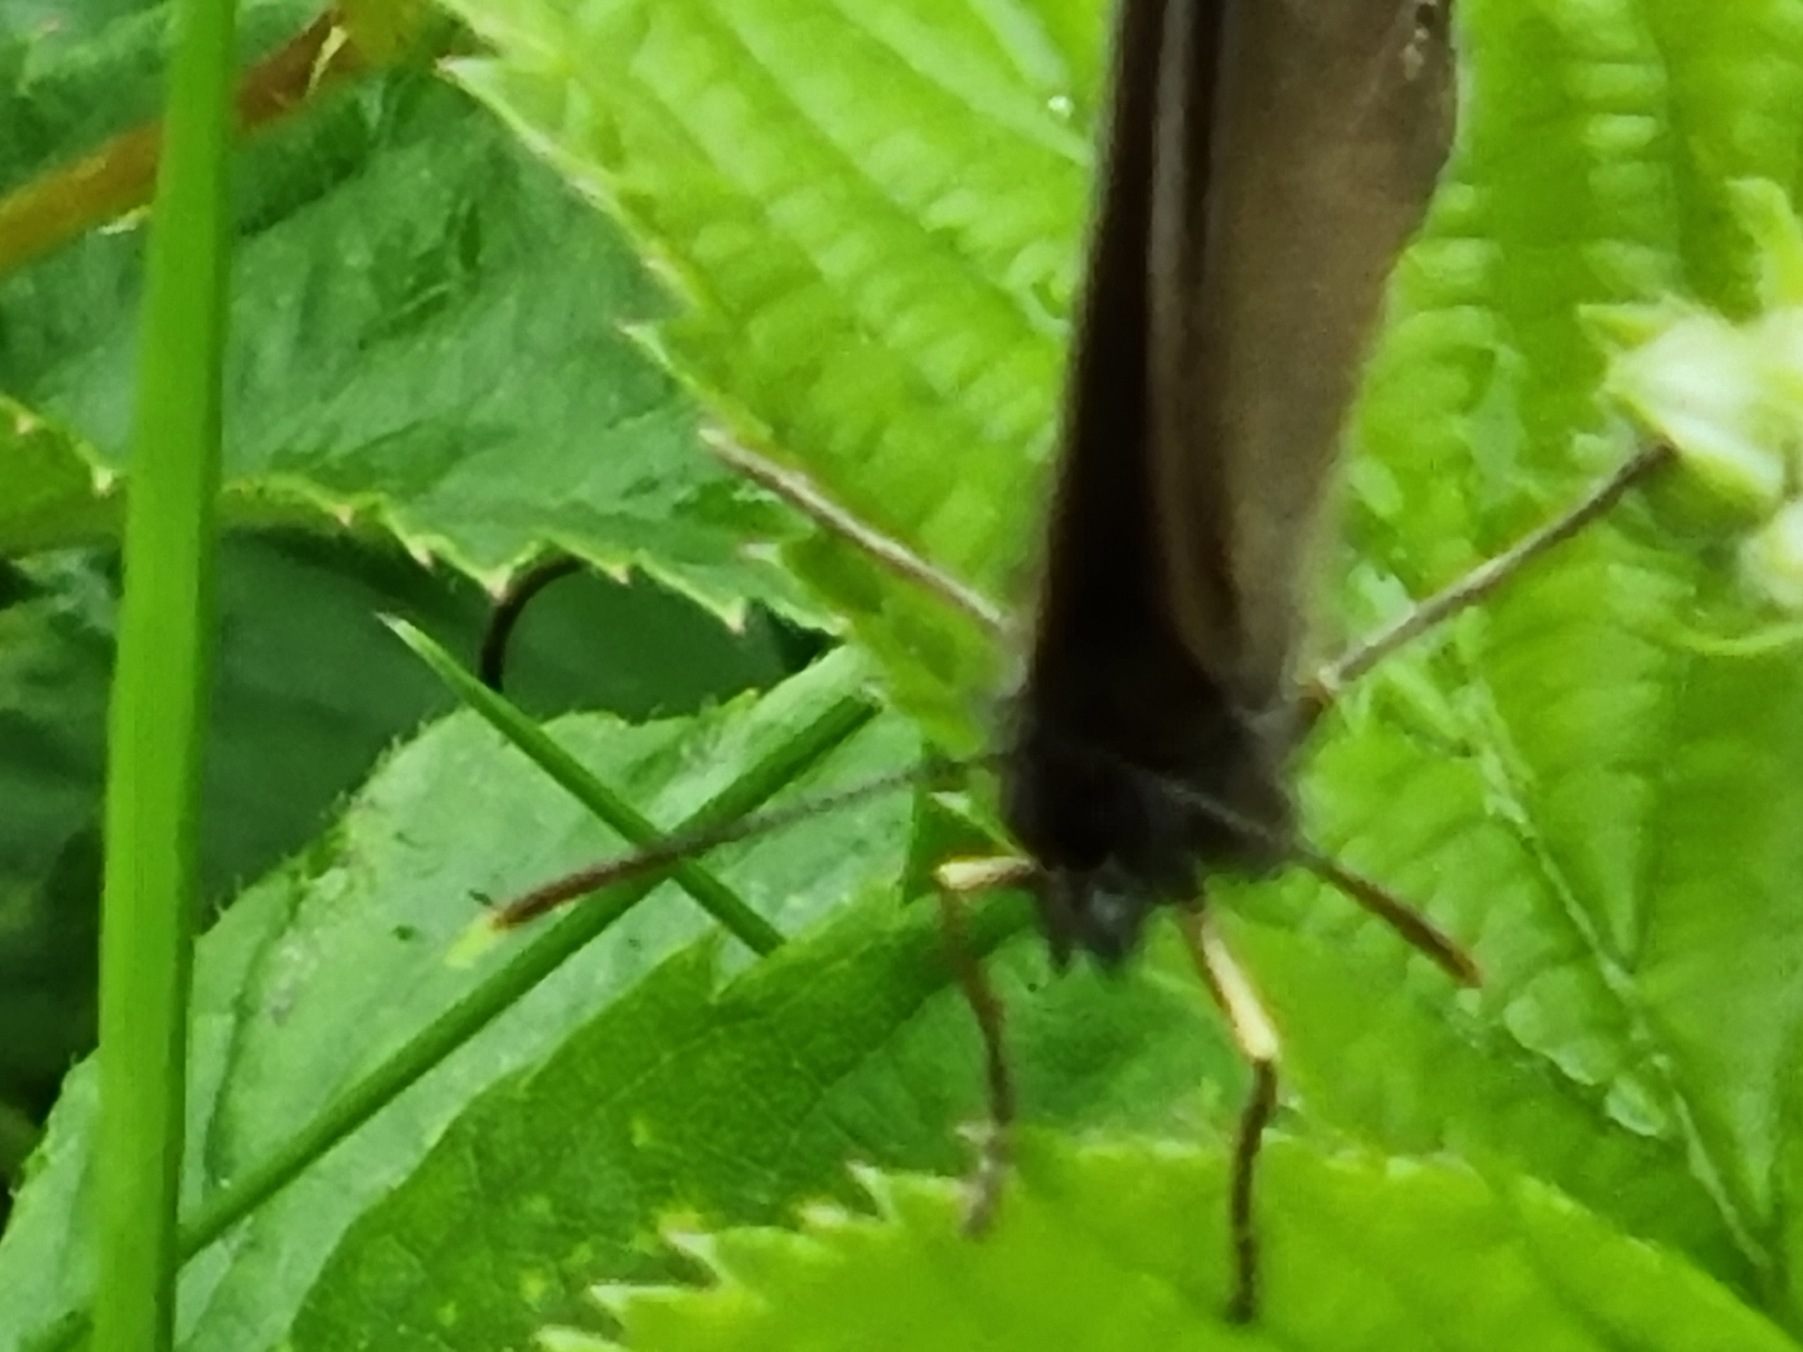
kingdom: Animalia
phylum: Arthropoda
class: Insecta
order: Lepidoptera
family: Nymphalidae
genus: Aphantopus
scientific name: Aphantopus hyperantus
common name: Engrandøje
